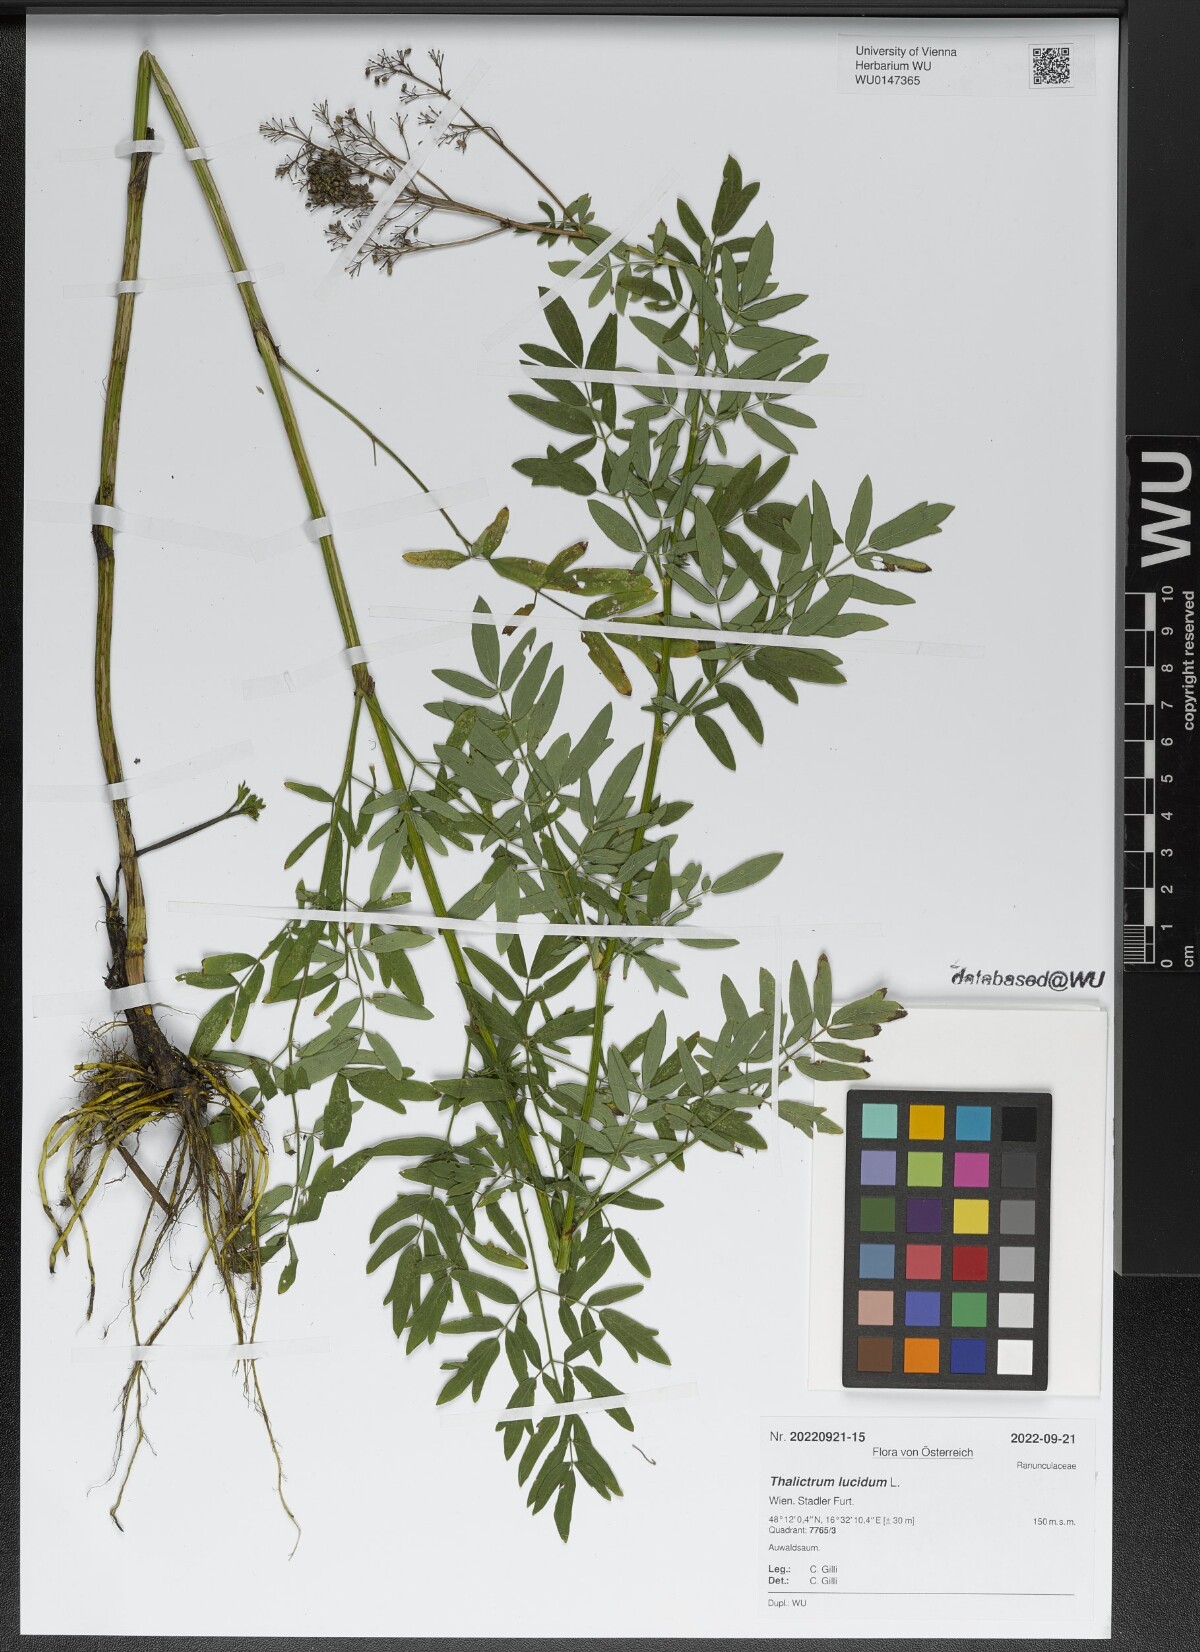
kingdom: Plantae
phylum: Tracheophyta
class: Magnoliopsida
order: Ranunculales
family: Ranunculaceae
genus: Thalictrum
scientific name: Thalictrum lucidum
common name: Shining meadow-rue
